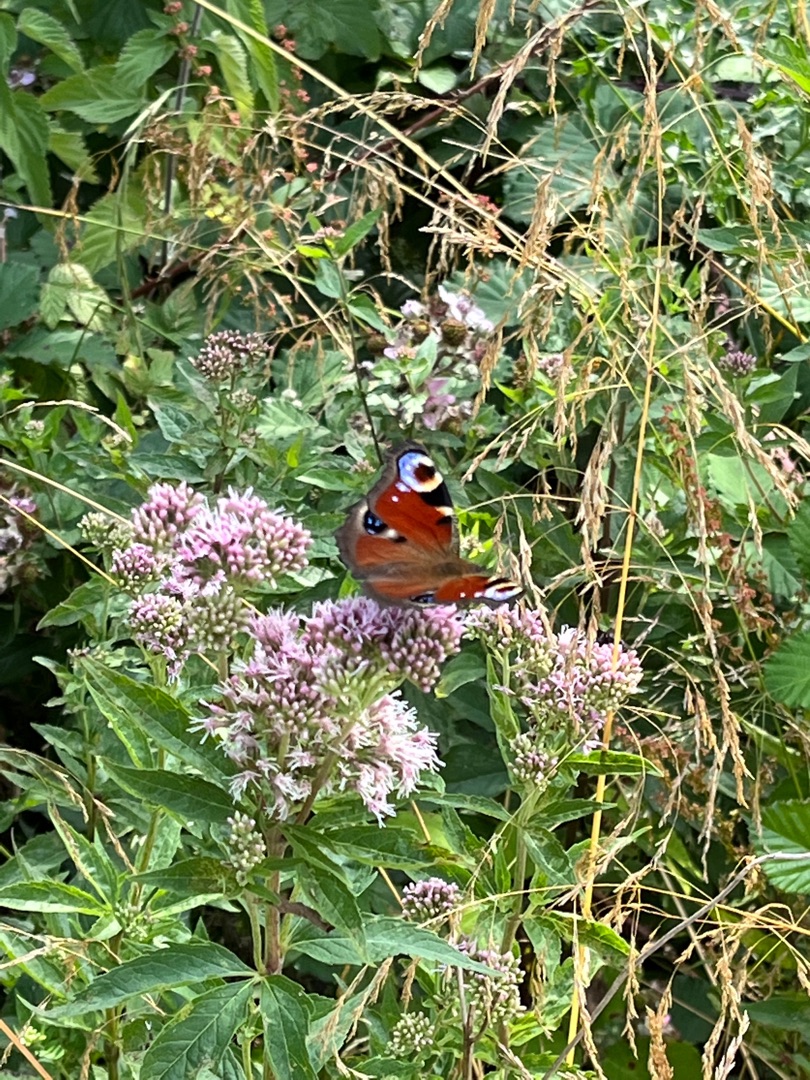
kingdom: Animalia
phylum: Arthropoda
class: Insecta
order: Lepidoptera
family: Nymphalidae
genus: Aglais
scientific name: Aglais io
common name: Dagpåfugleøje
